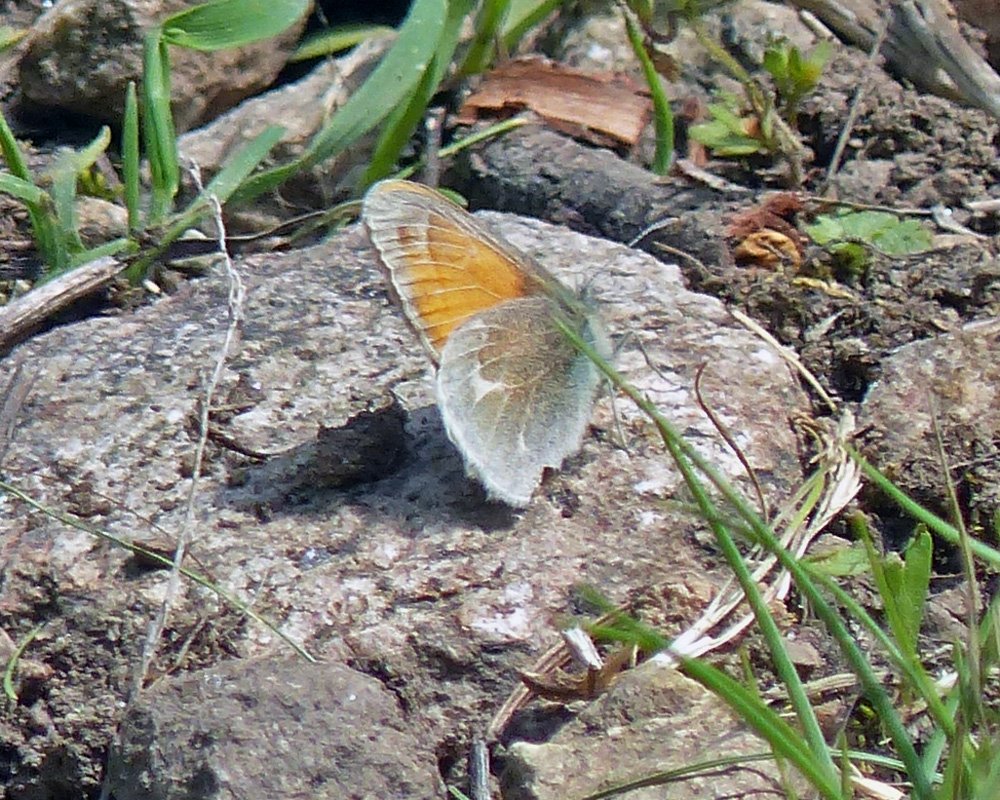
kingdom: Animalia
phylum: Arthropoda
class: Insecta
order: Lepidoptera
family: Nymphalidae
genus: Coenonympha
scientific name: Coenonympha tullia
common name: Large Heath
